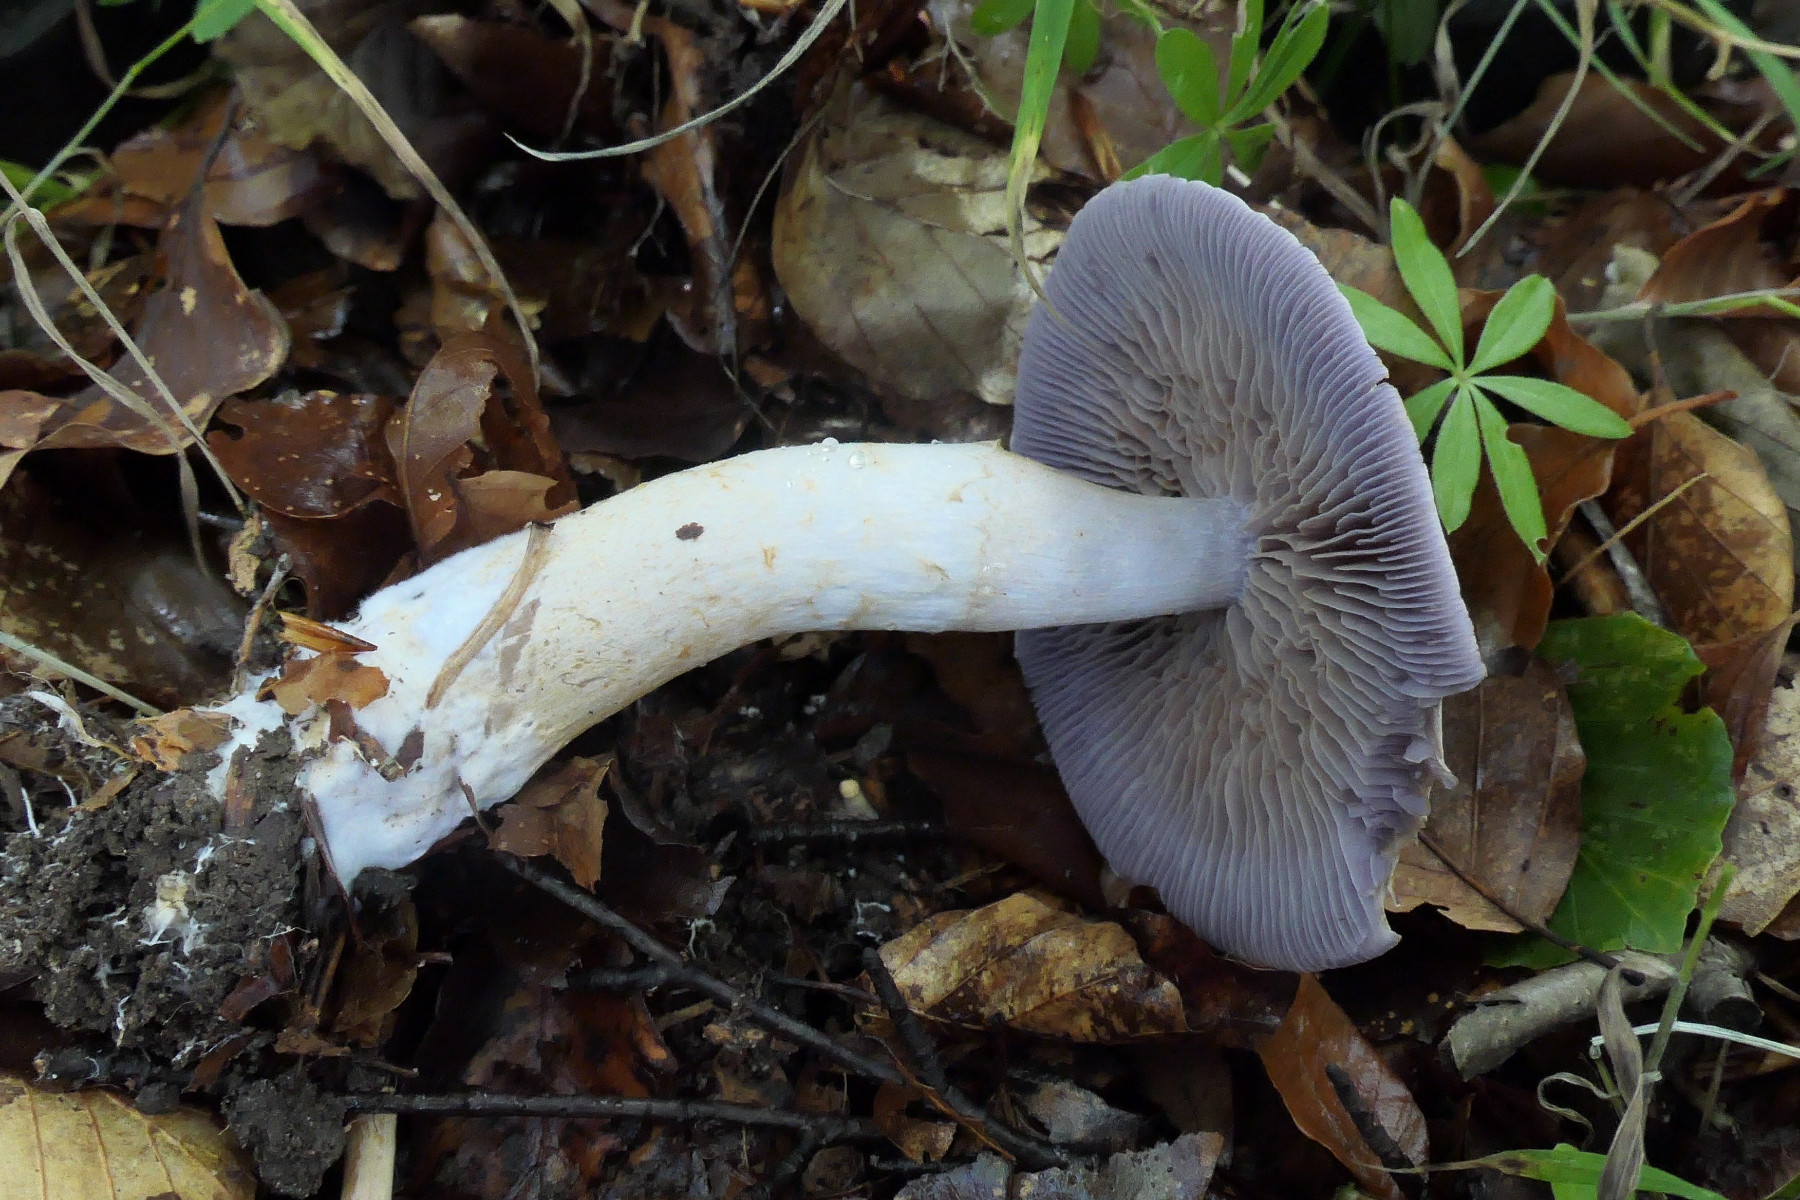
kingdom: Fungi
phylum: Basidiomycota
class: Agaricomycetes
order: Agaricales
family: Cortinariaceae
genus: Cortinarius
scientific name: Cortinarius
